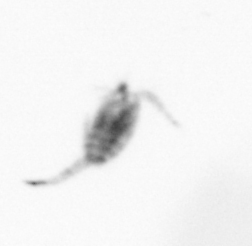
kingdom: Animalia
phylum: Arthropoda
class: Copepoda
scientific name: Copepoda
